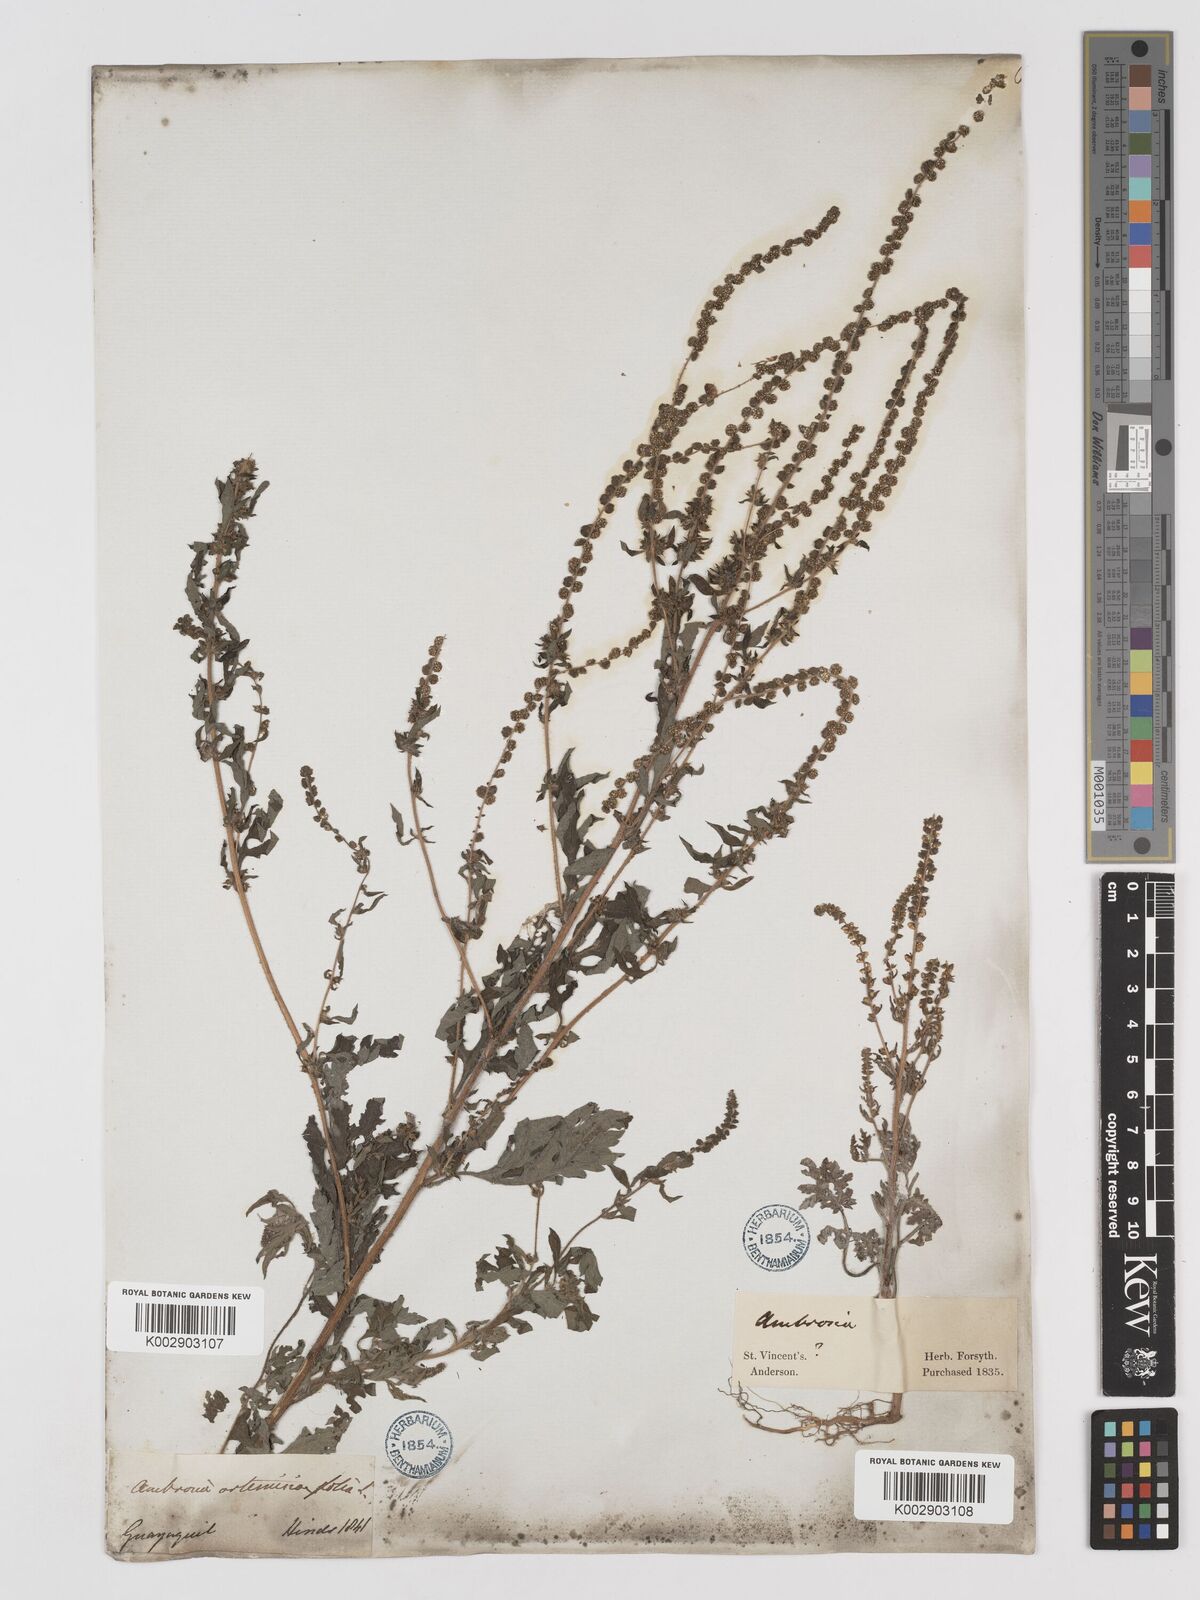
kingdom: Plantae
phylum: Tracheophyta
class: Magnoliopsida
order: Asterales
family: Asteraceae
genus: Ambrosia
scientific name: Ambrosia artemisiifolia
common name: Annual ragweed
